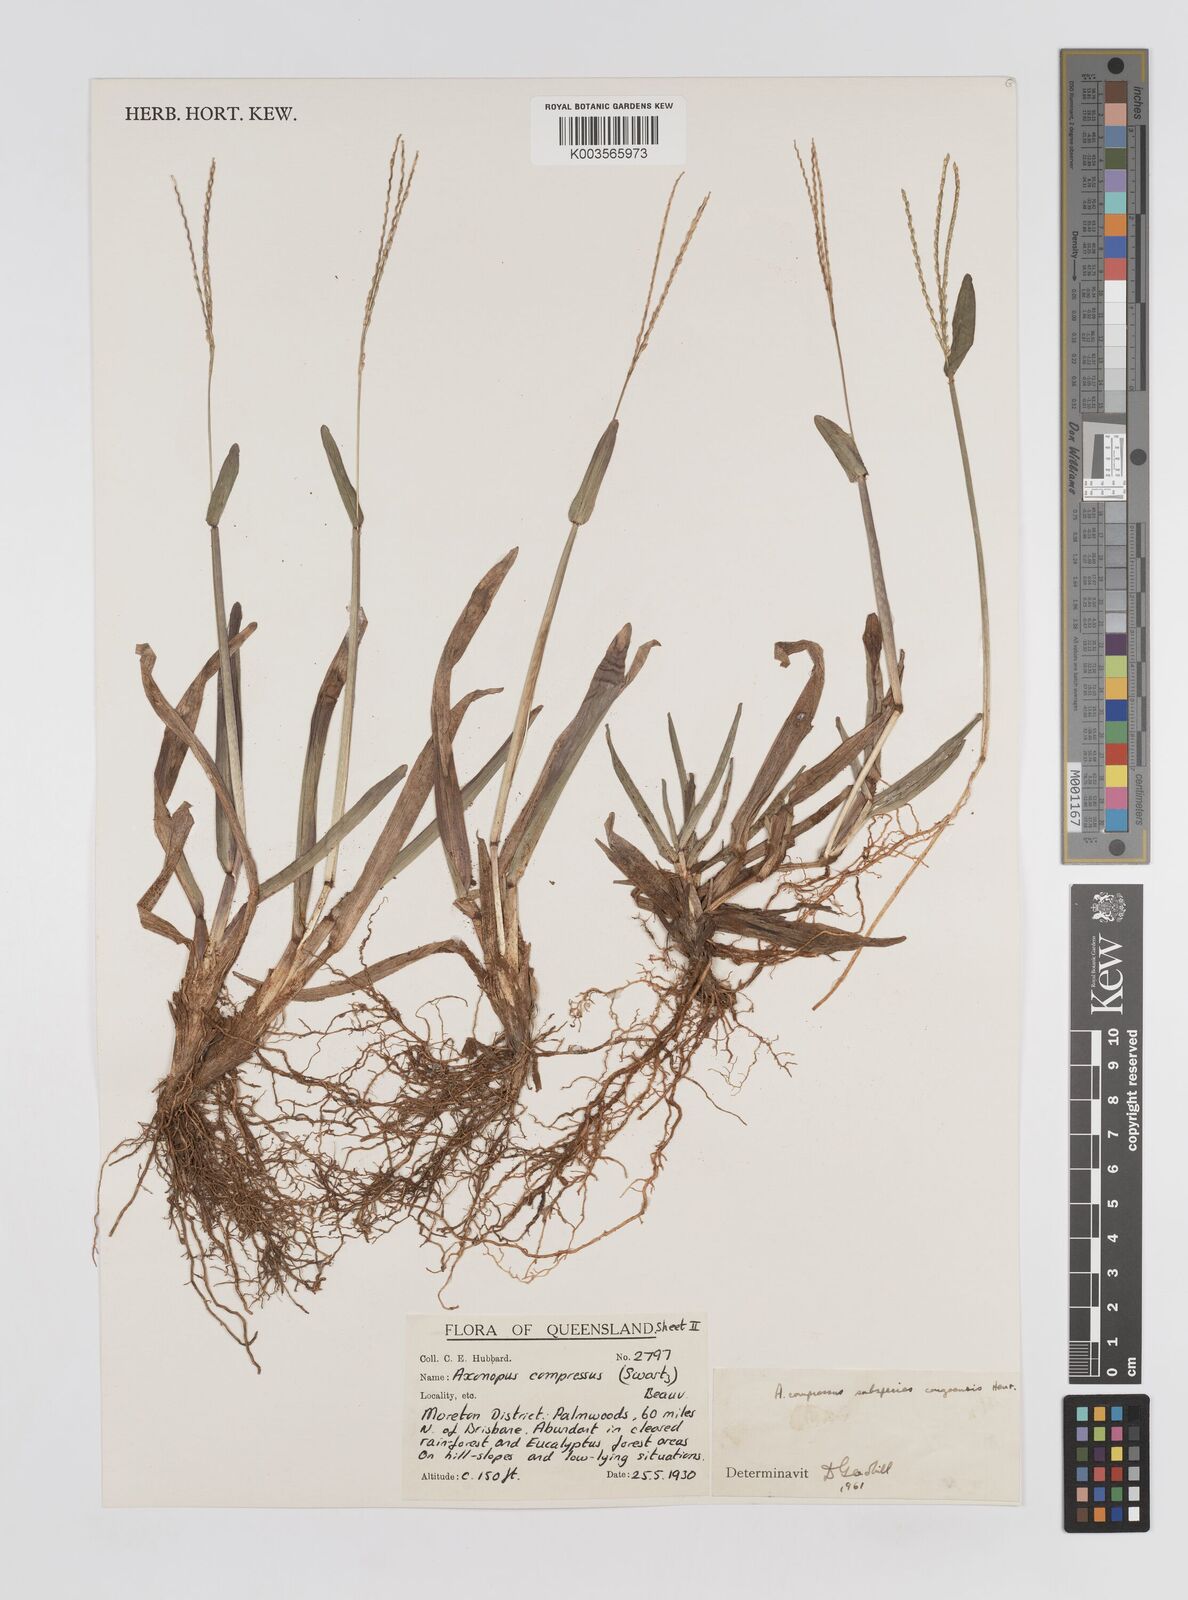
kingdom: Plantae
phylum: Tracheophyta
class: Liliopsida
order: Poales
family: Poaceae
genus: Axonopus
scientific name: Axonopus compressus
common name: American carpet grass
